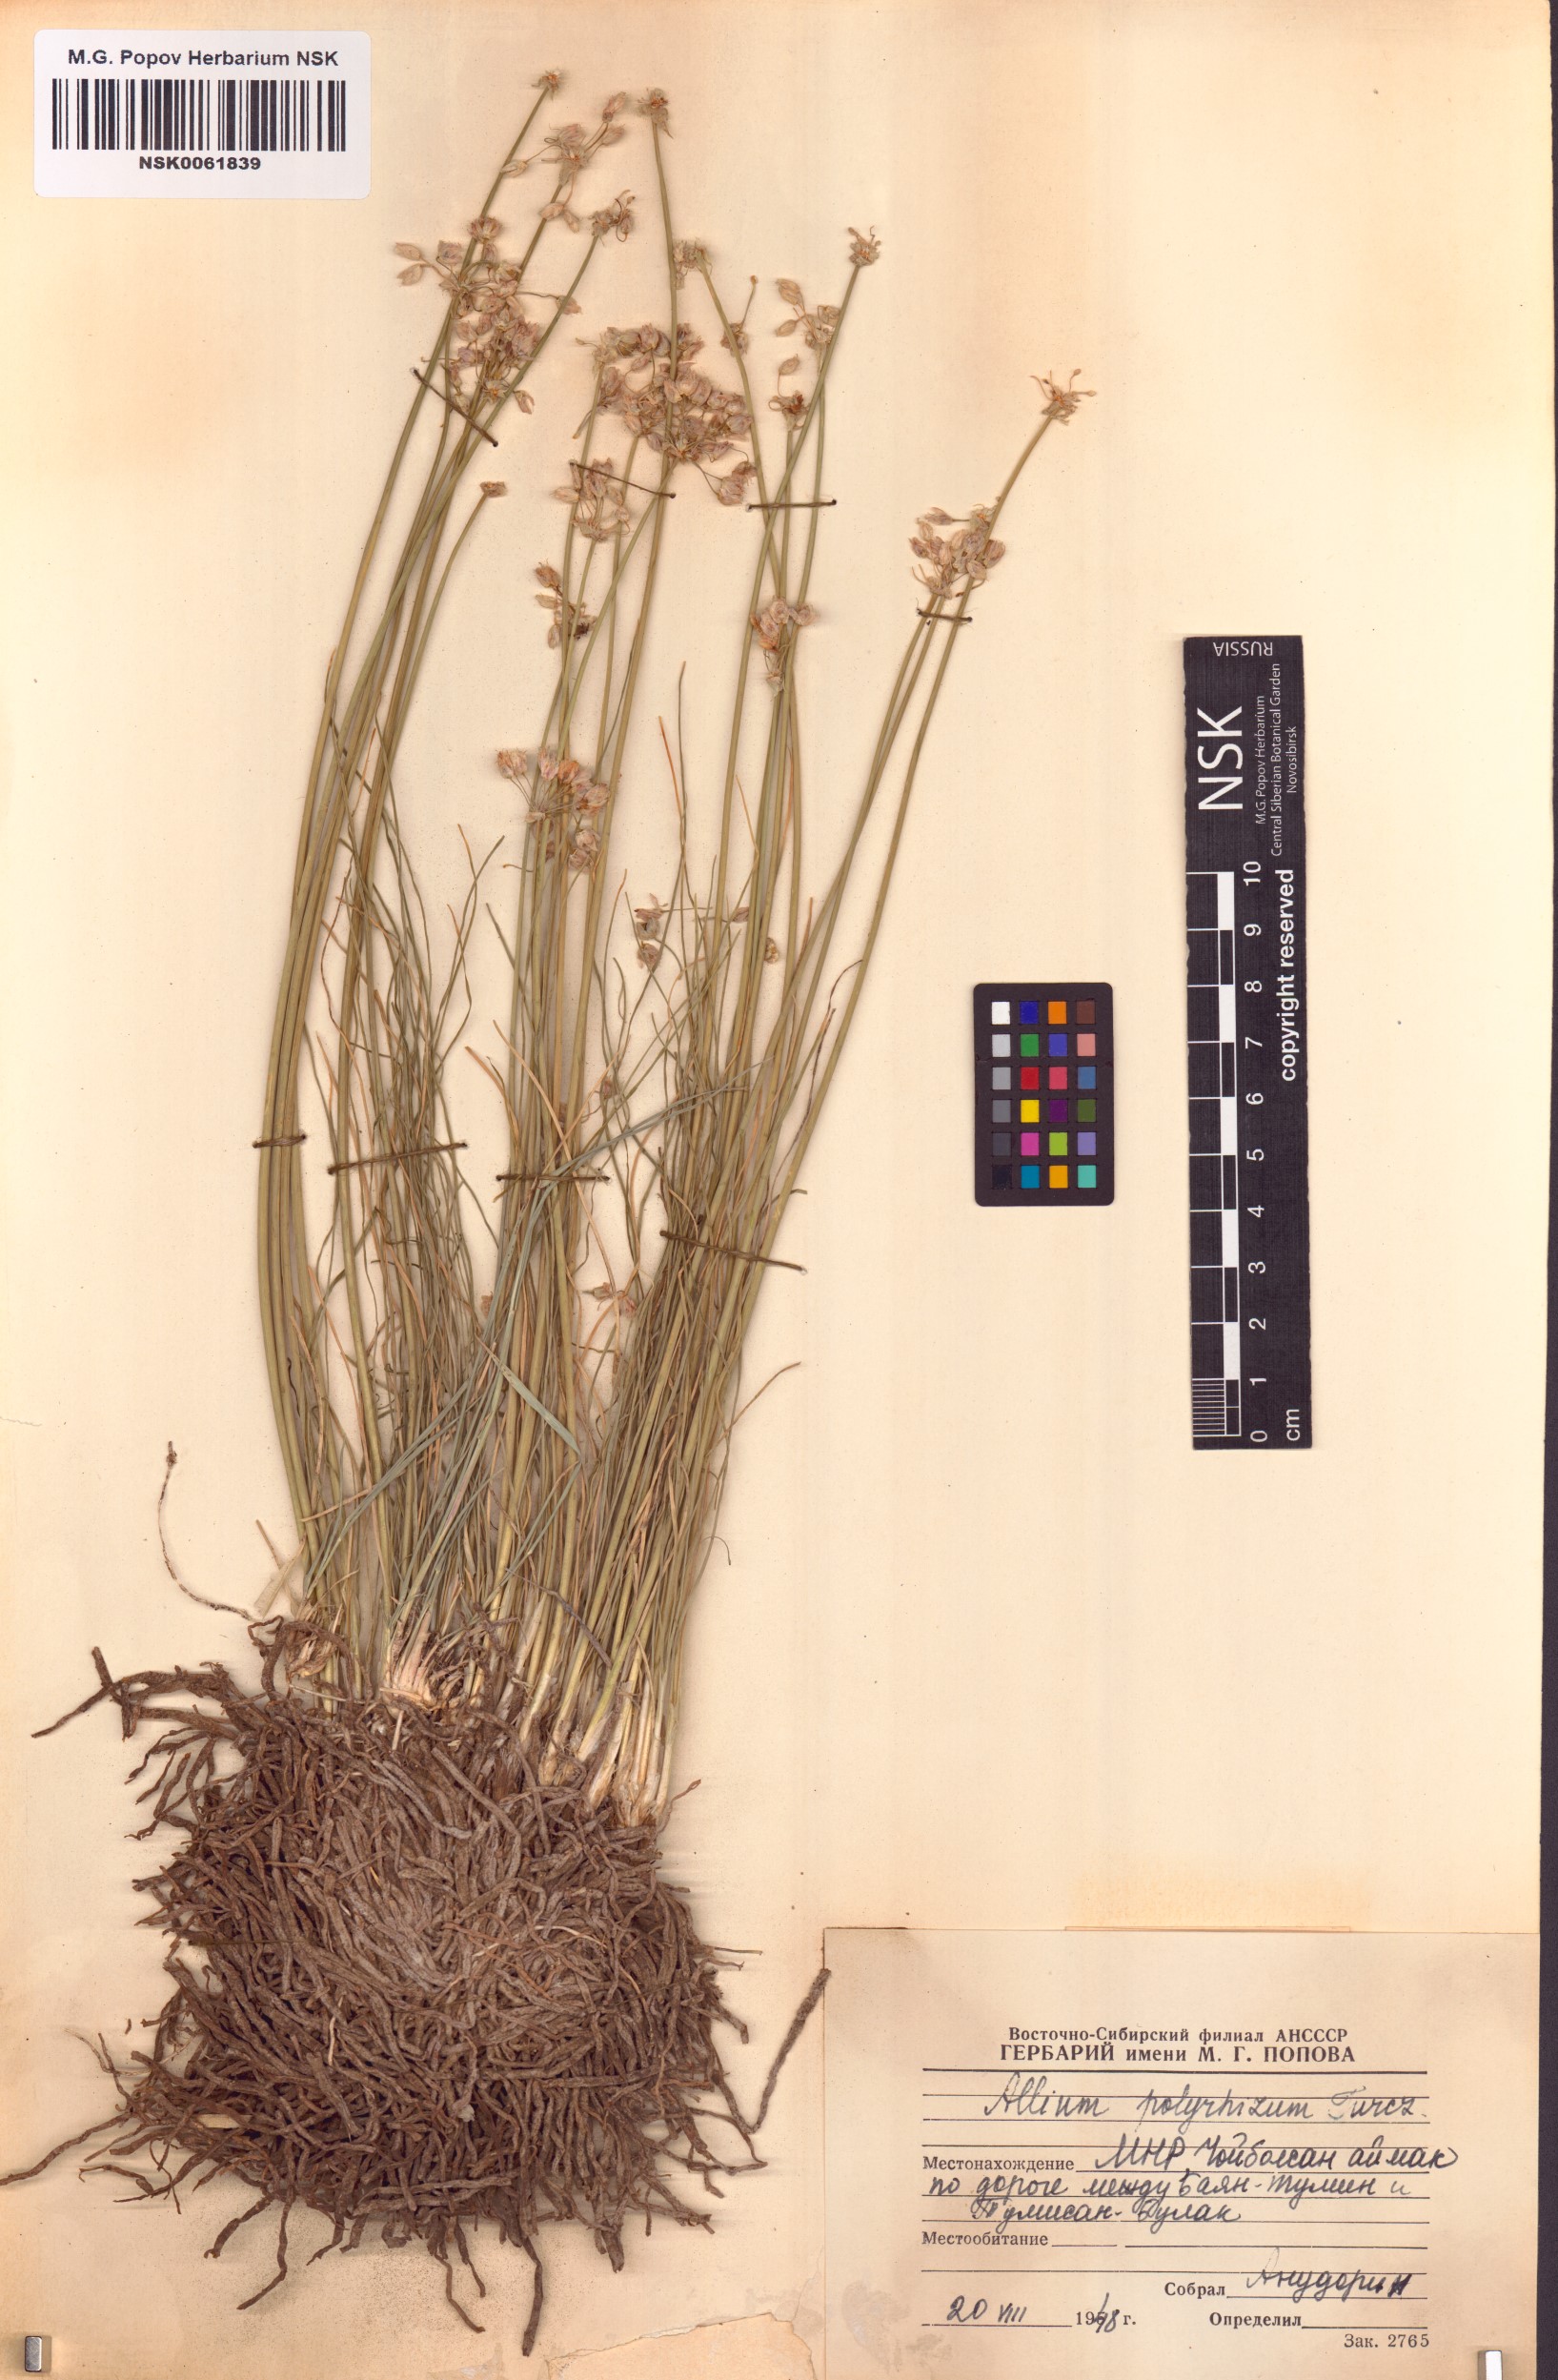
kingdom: Plantae
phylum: Tracheophyta
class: Liliopsida
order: Asparagales
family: Amaryllidaceae
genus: Allium
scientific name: Allium polyrhizum
